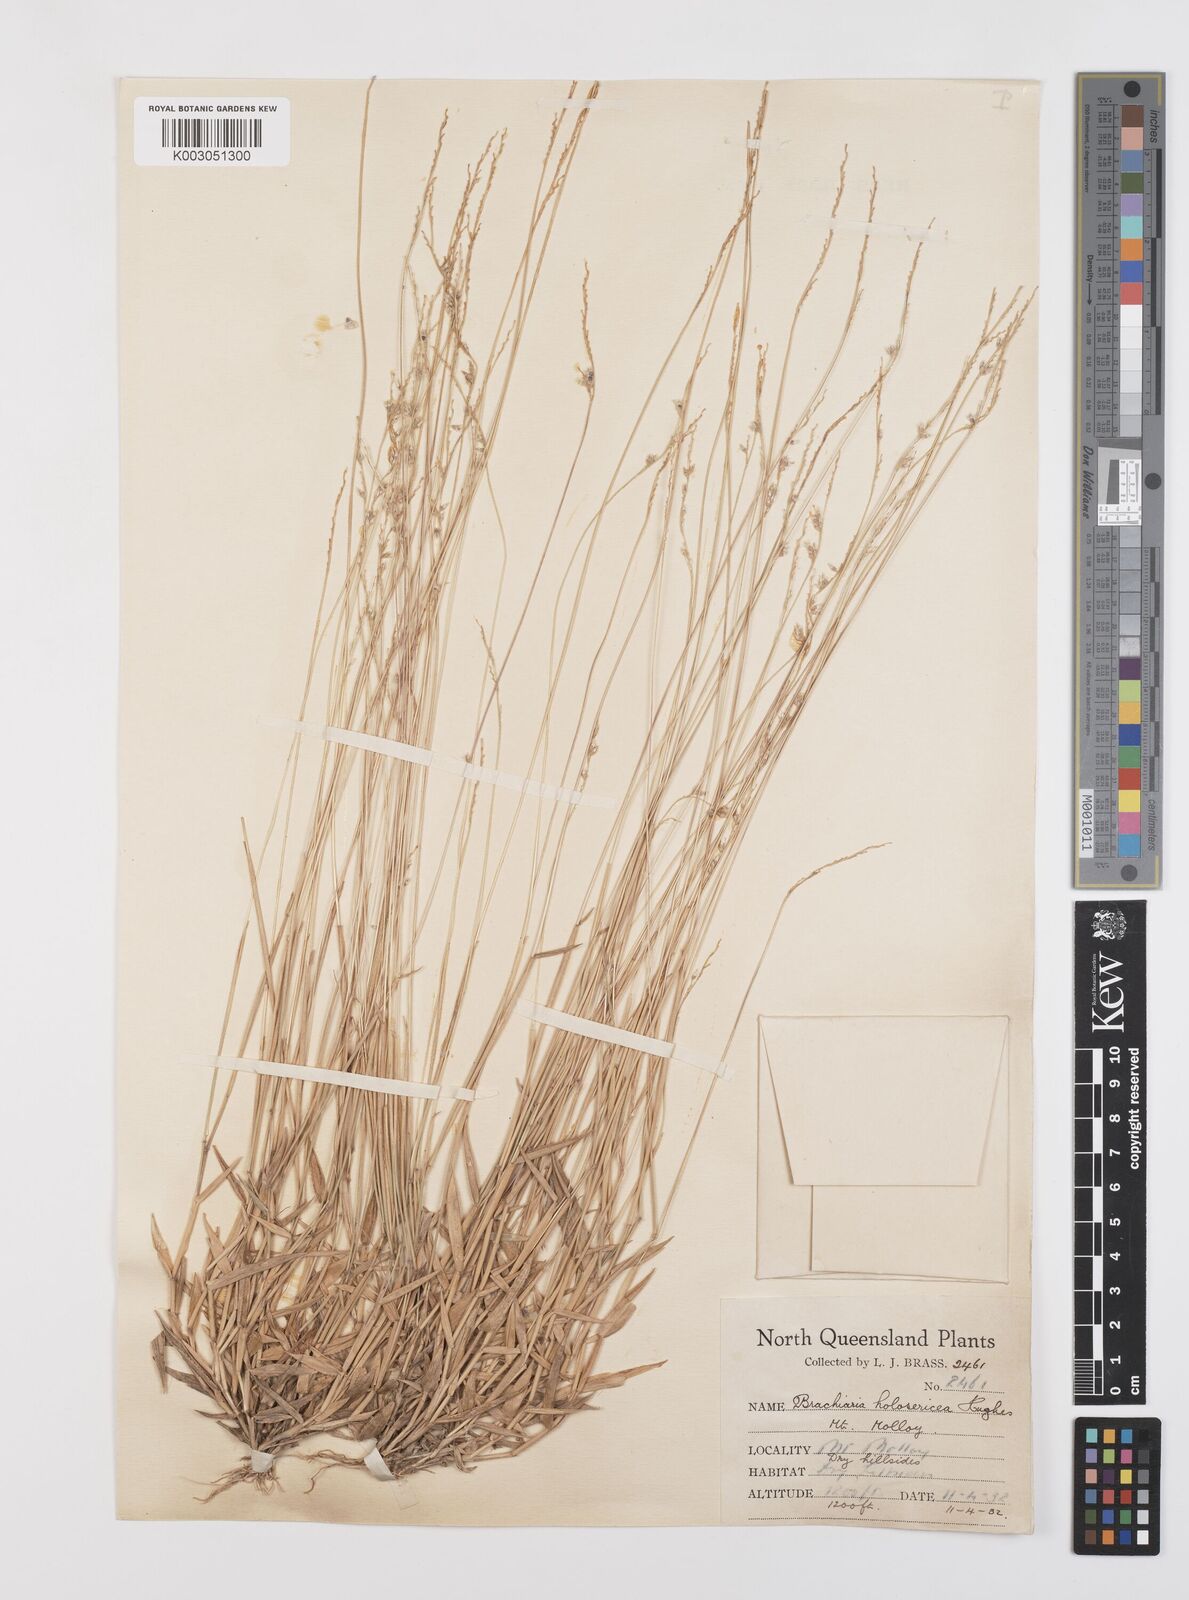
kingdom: Plantae
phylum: Tracheophyta
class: Liliopsida
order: Poales
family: Poaceae
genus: Urochloa
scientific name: Urochloa holosericea
